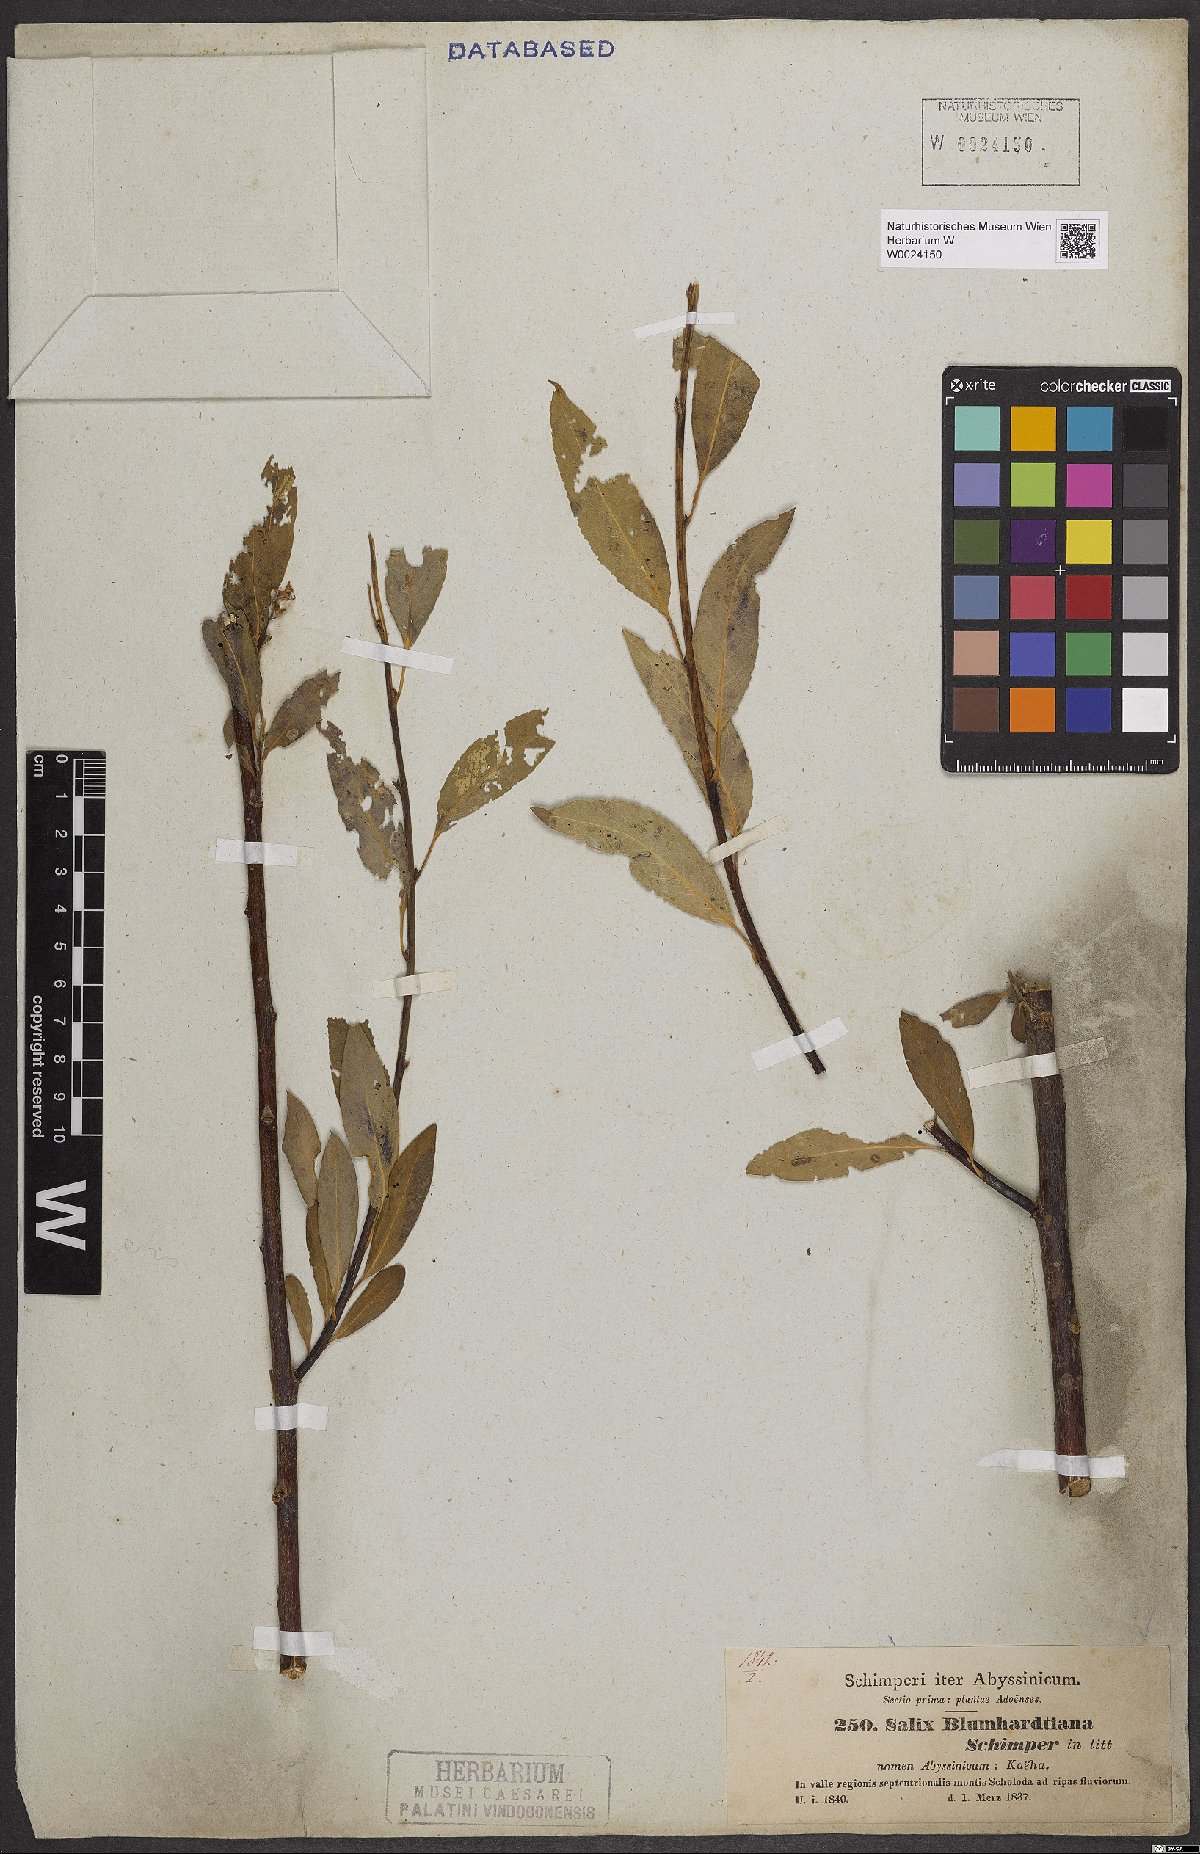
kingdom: Plantae
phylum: Tracheophyta
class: Magnoliopsida
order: Malpighiales
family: Salicaceae
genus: Salix
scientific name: Salix mucronata
